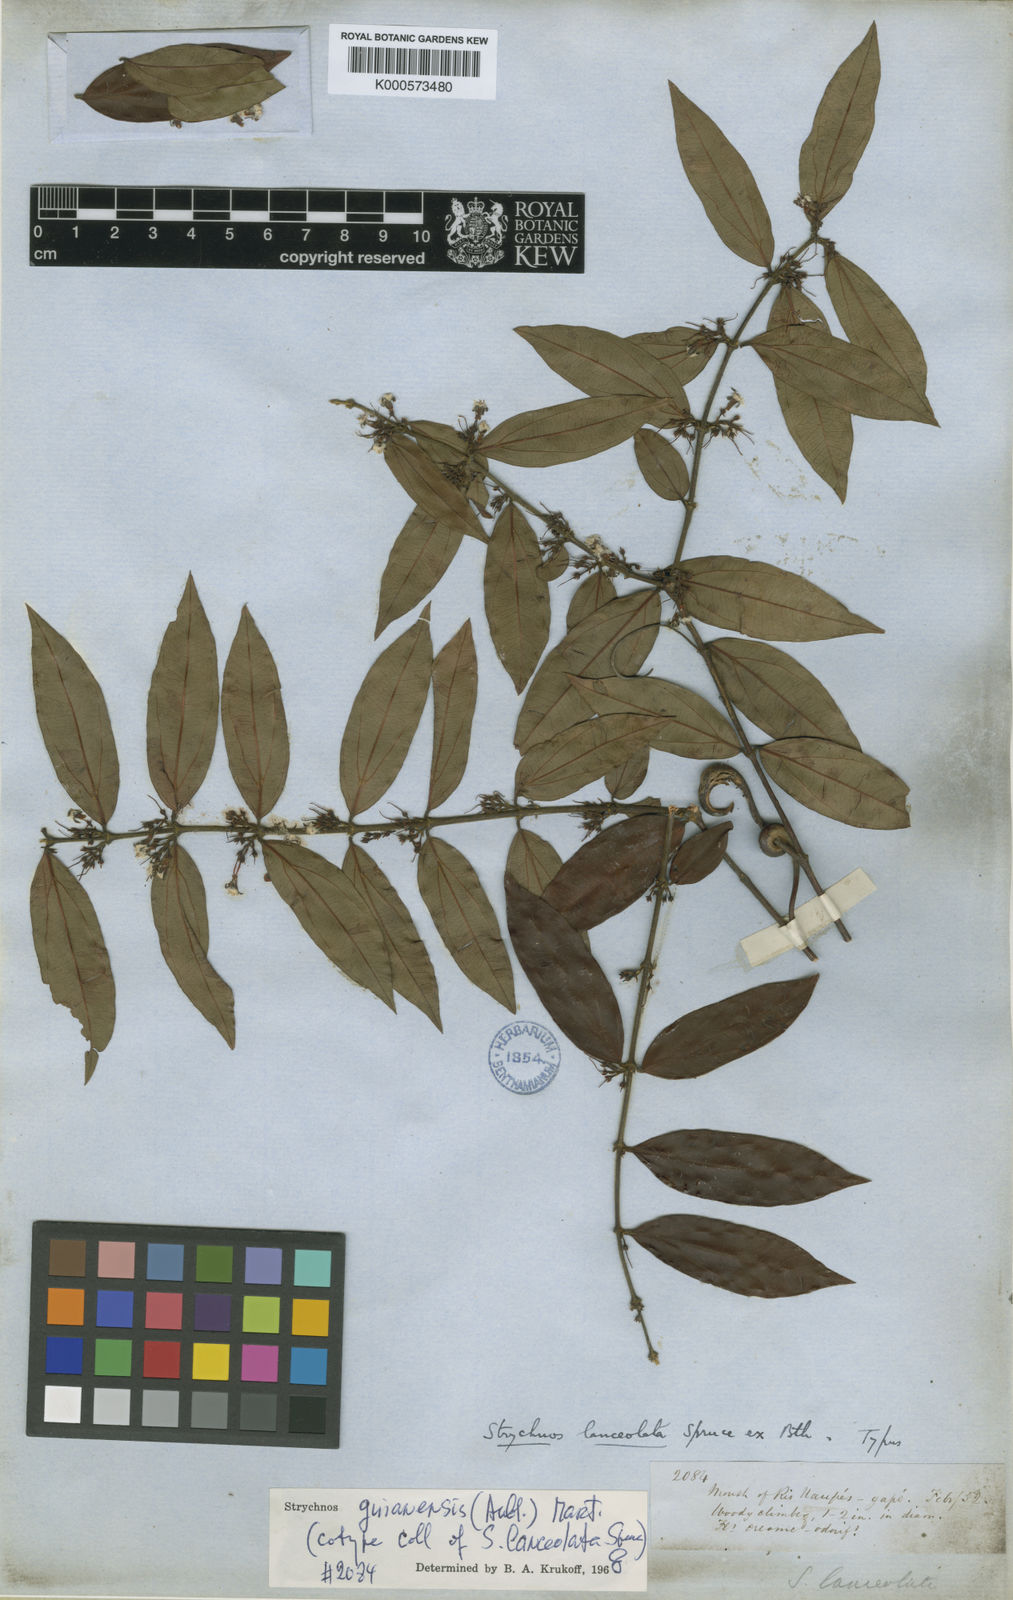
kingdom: Plantae
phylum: Tracheophyta
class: Magnoliopsida
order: Gentianales
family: Loganiaceae
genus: Strychnos
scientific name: Strychnos guianensis
